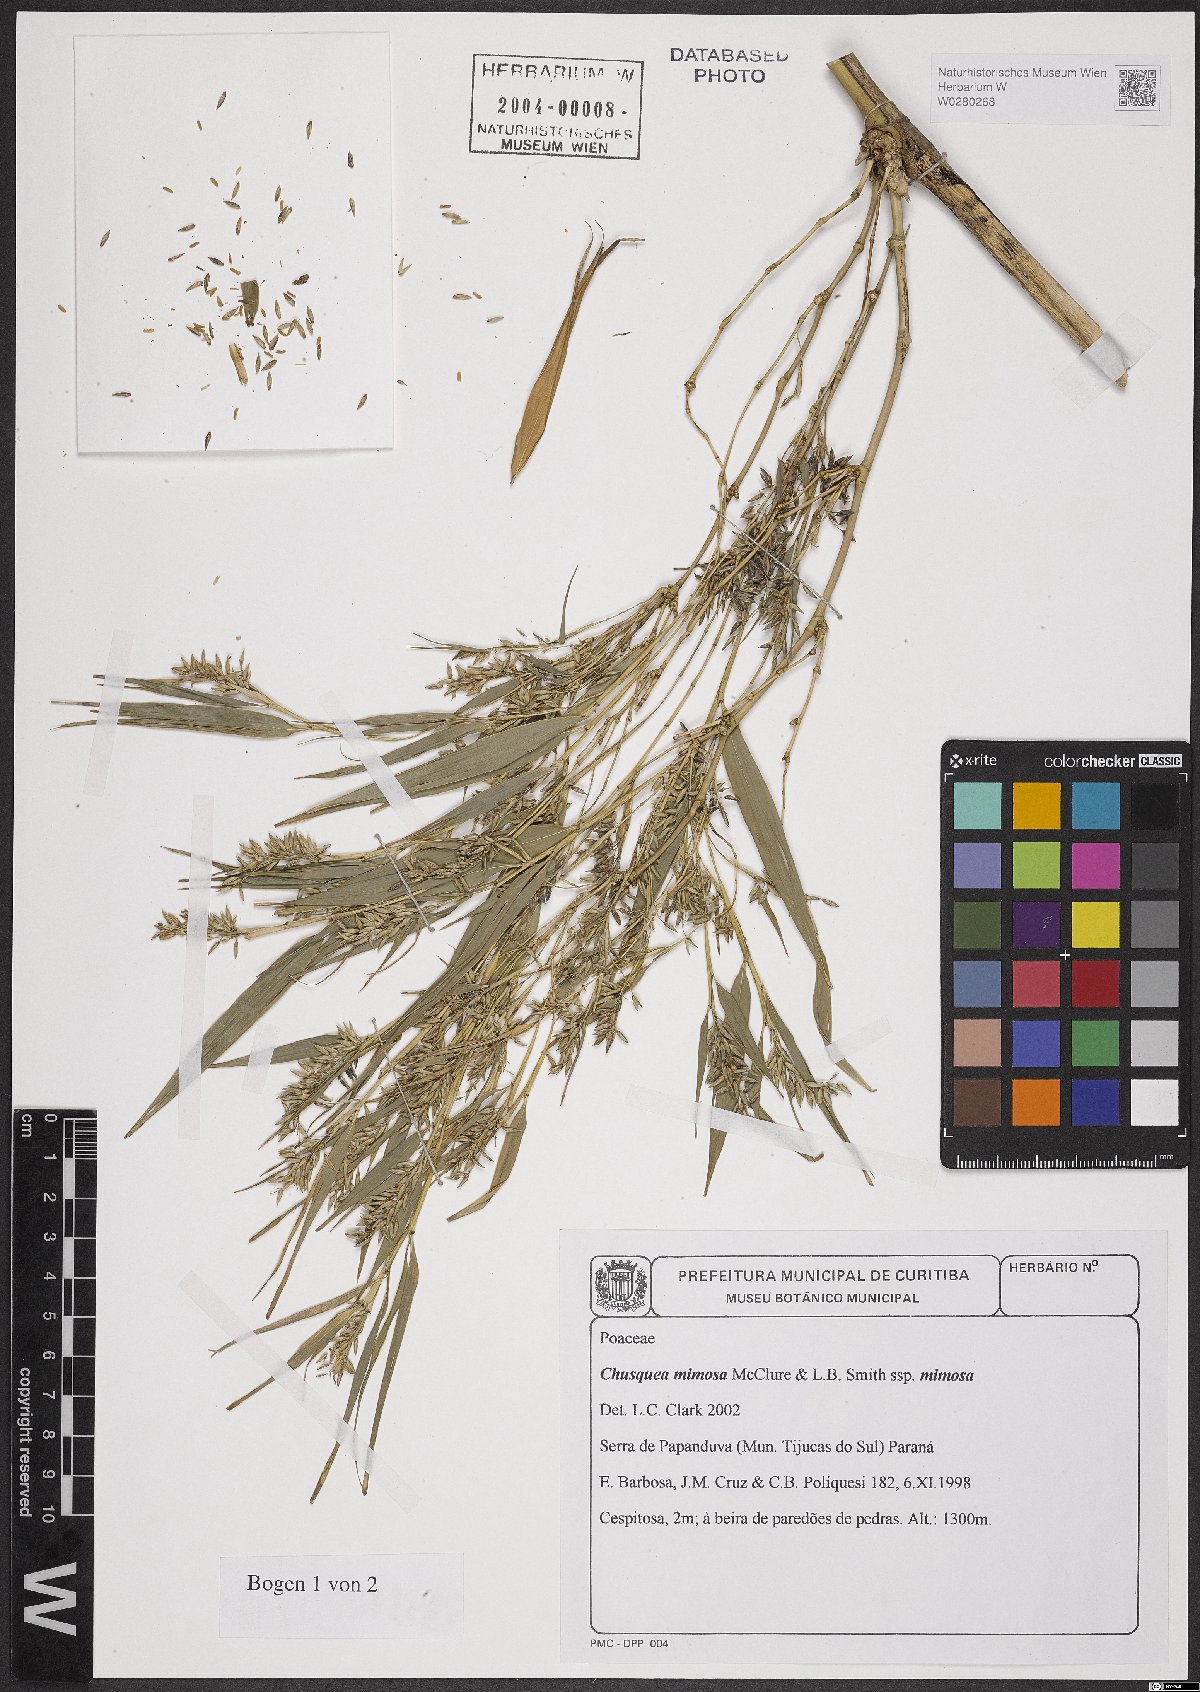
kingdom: Plantae
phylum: Tracheophyta
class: Liliopsida
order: Poales
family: Poaceae
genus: Chusquea
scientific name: Chusquea mimosa
